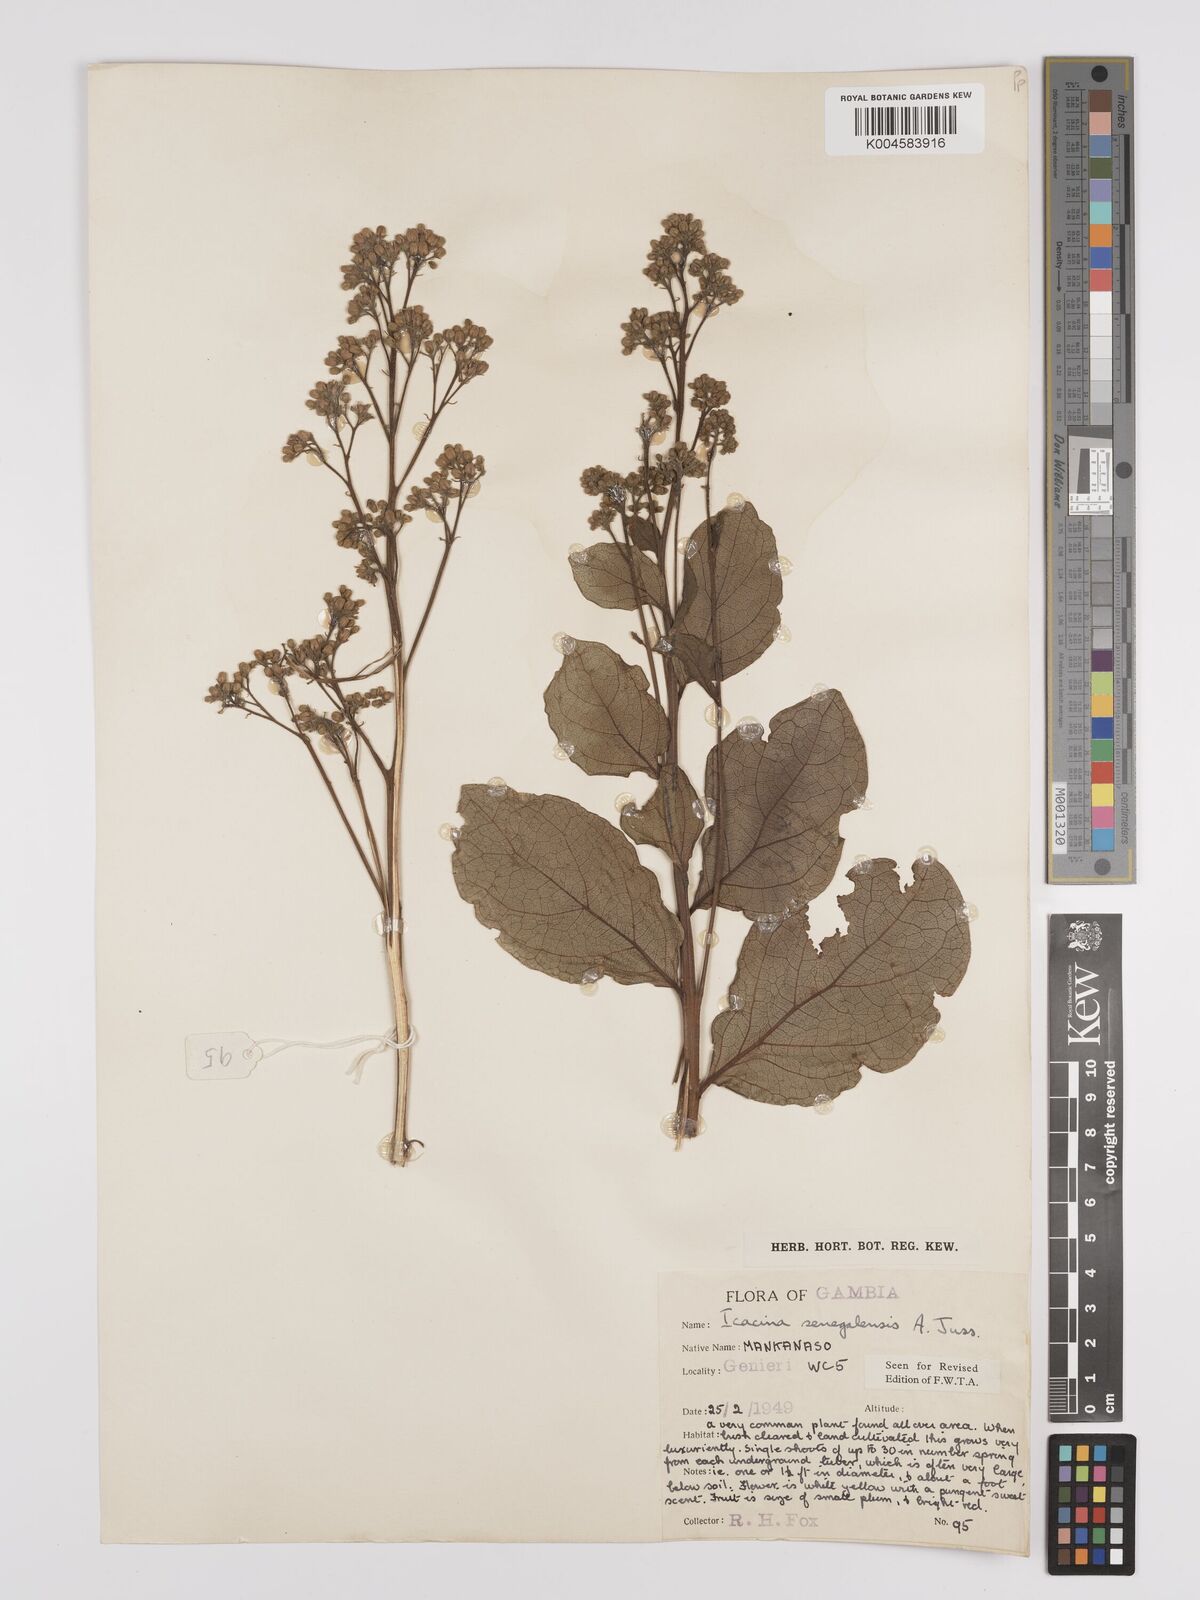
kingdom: Plantae
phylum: Tracheophyta
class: Magnoliopsida
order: Icacinales
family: Icacinaceae
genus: Icacina
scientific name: Icacina oliviformis
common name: False yam
